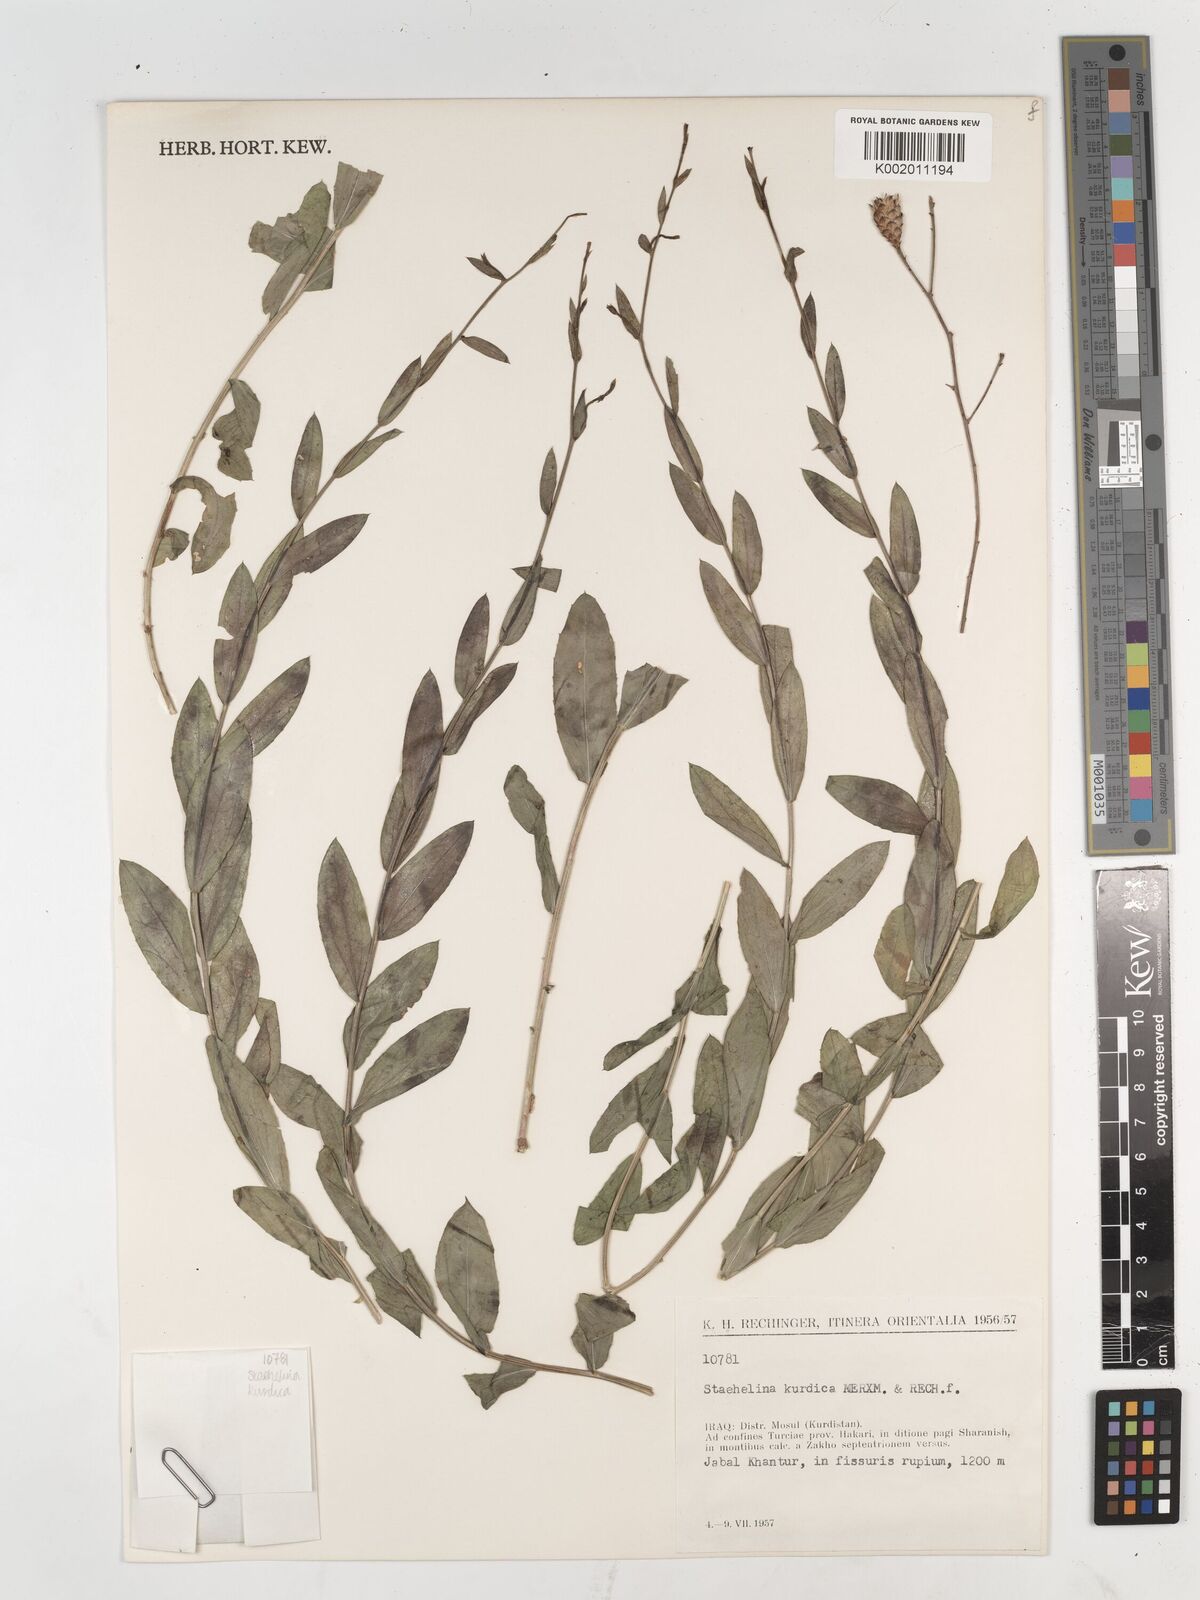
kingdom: Plantae
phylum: Tracheophyta
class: Magnoliopsida
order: Asterales
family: Asteraceae
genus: Staehelina
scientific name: Staehelina
